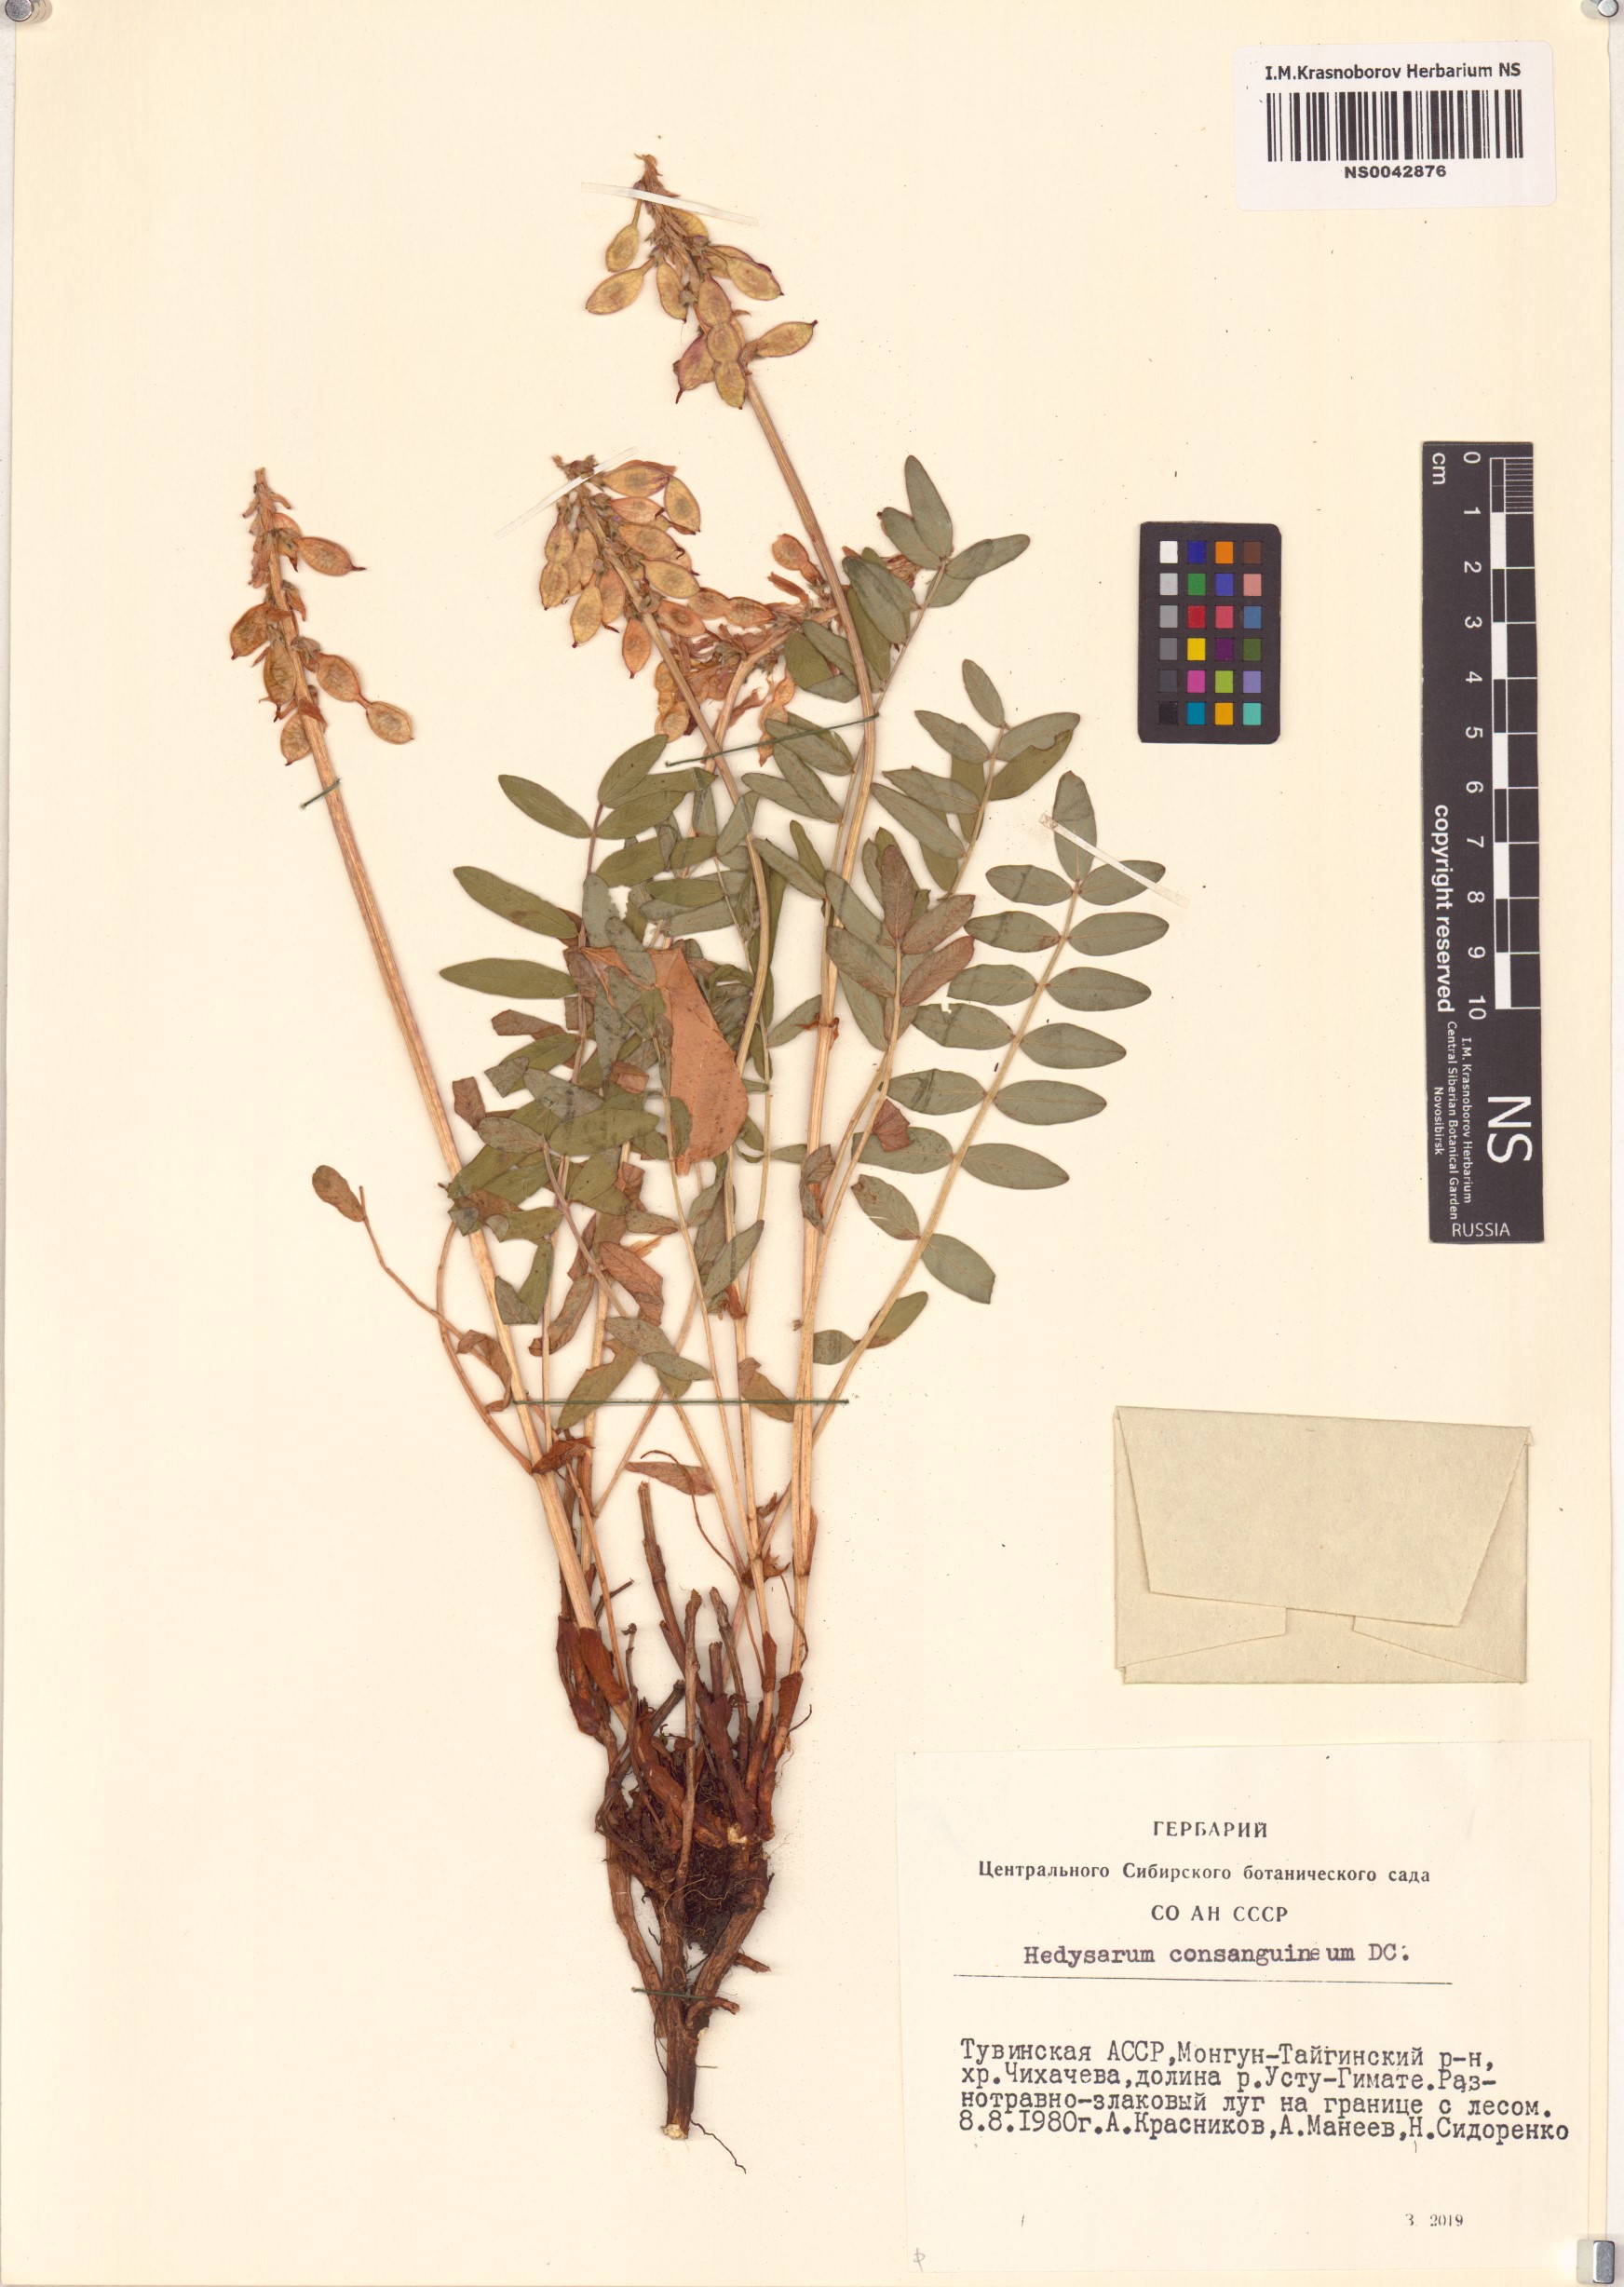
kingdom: Plantae
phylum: Tracheophyta
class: Magnoliopsida
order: Fabales
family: Fabaceae
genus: Hedysarum
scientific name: Hedysarum consanguineum
